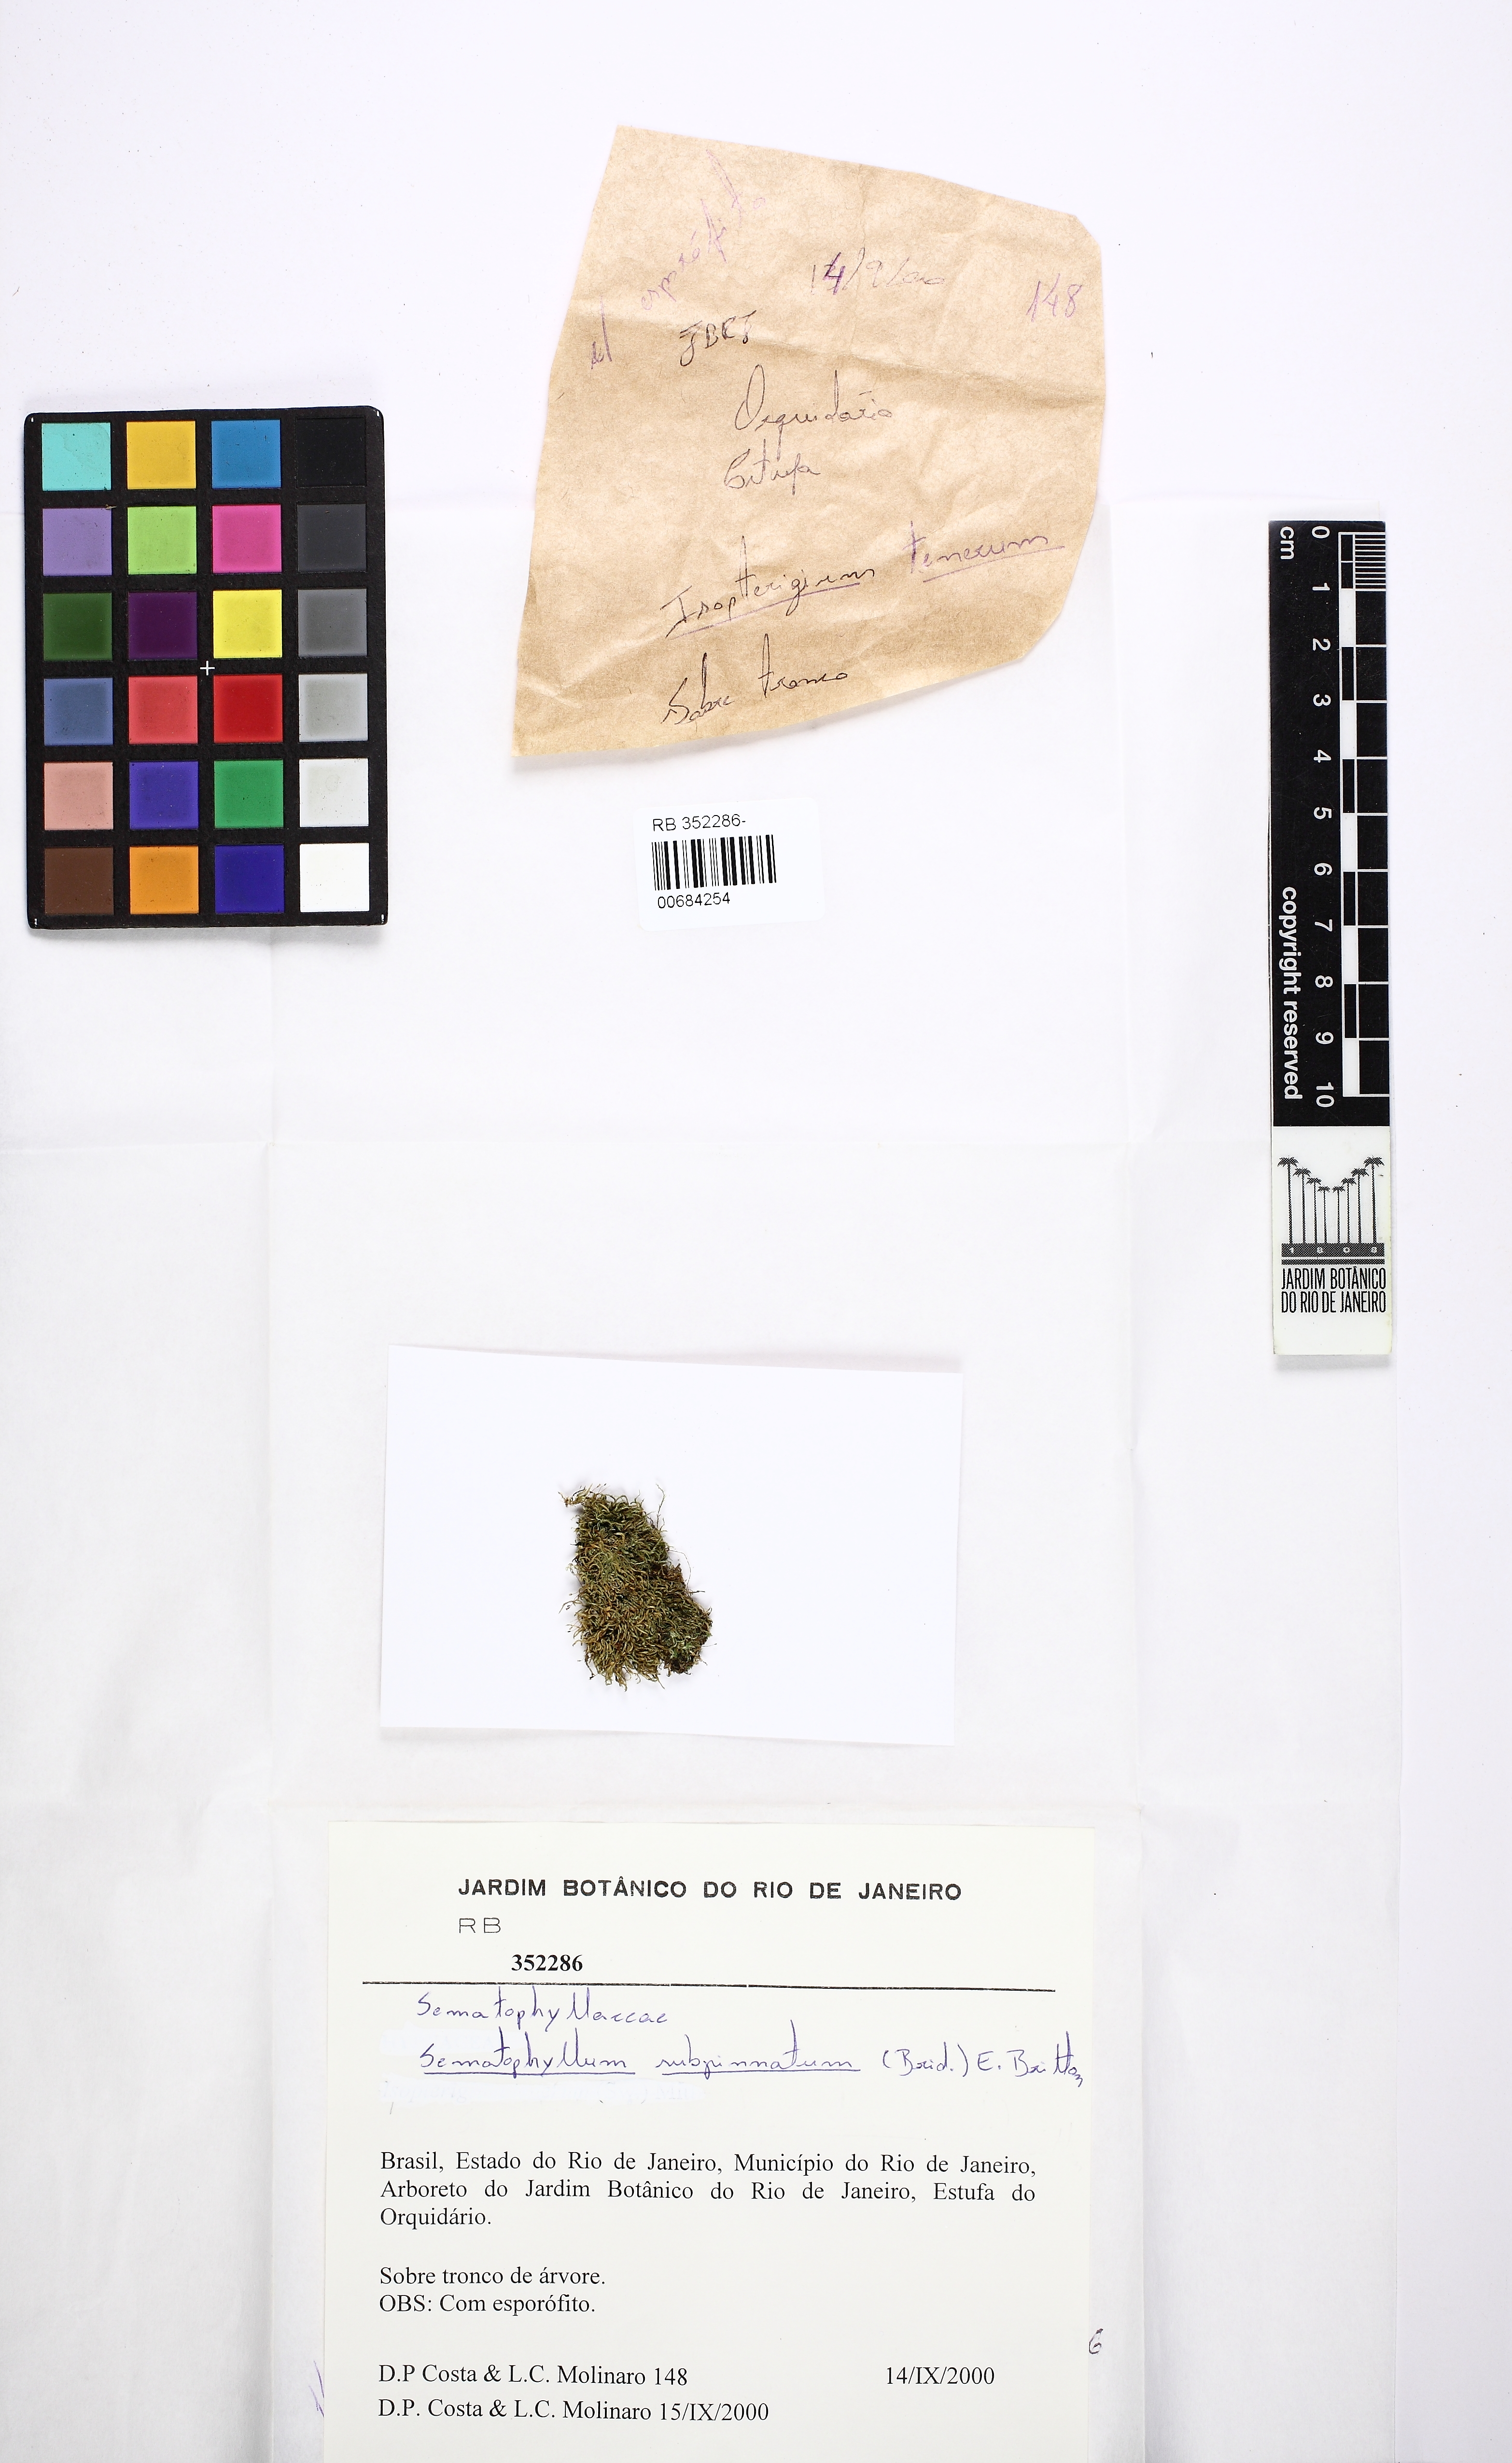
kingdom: Plantae
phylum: Bryophyta
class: Bryopsida
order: Hypnales
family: Sematophyllaceae
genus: Brittonodoxa
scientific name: Brittonodoxa subpinnata
